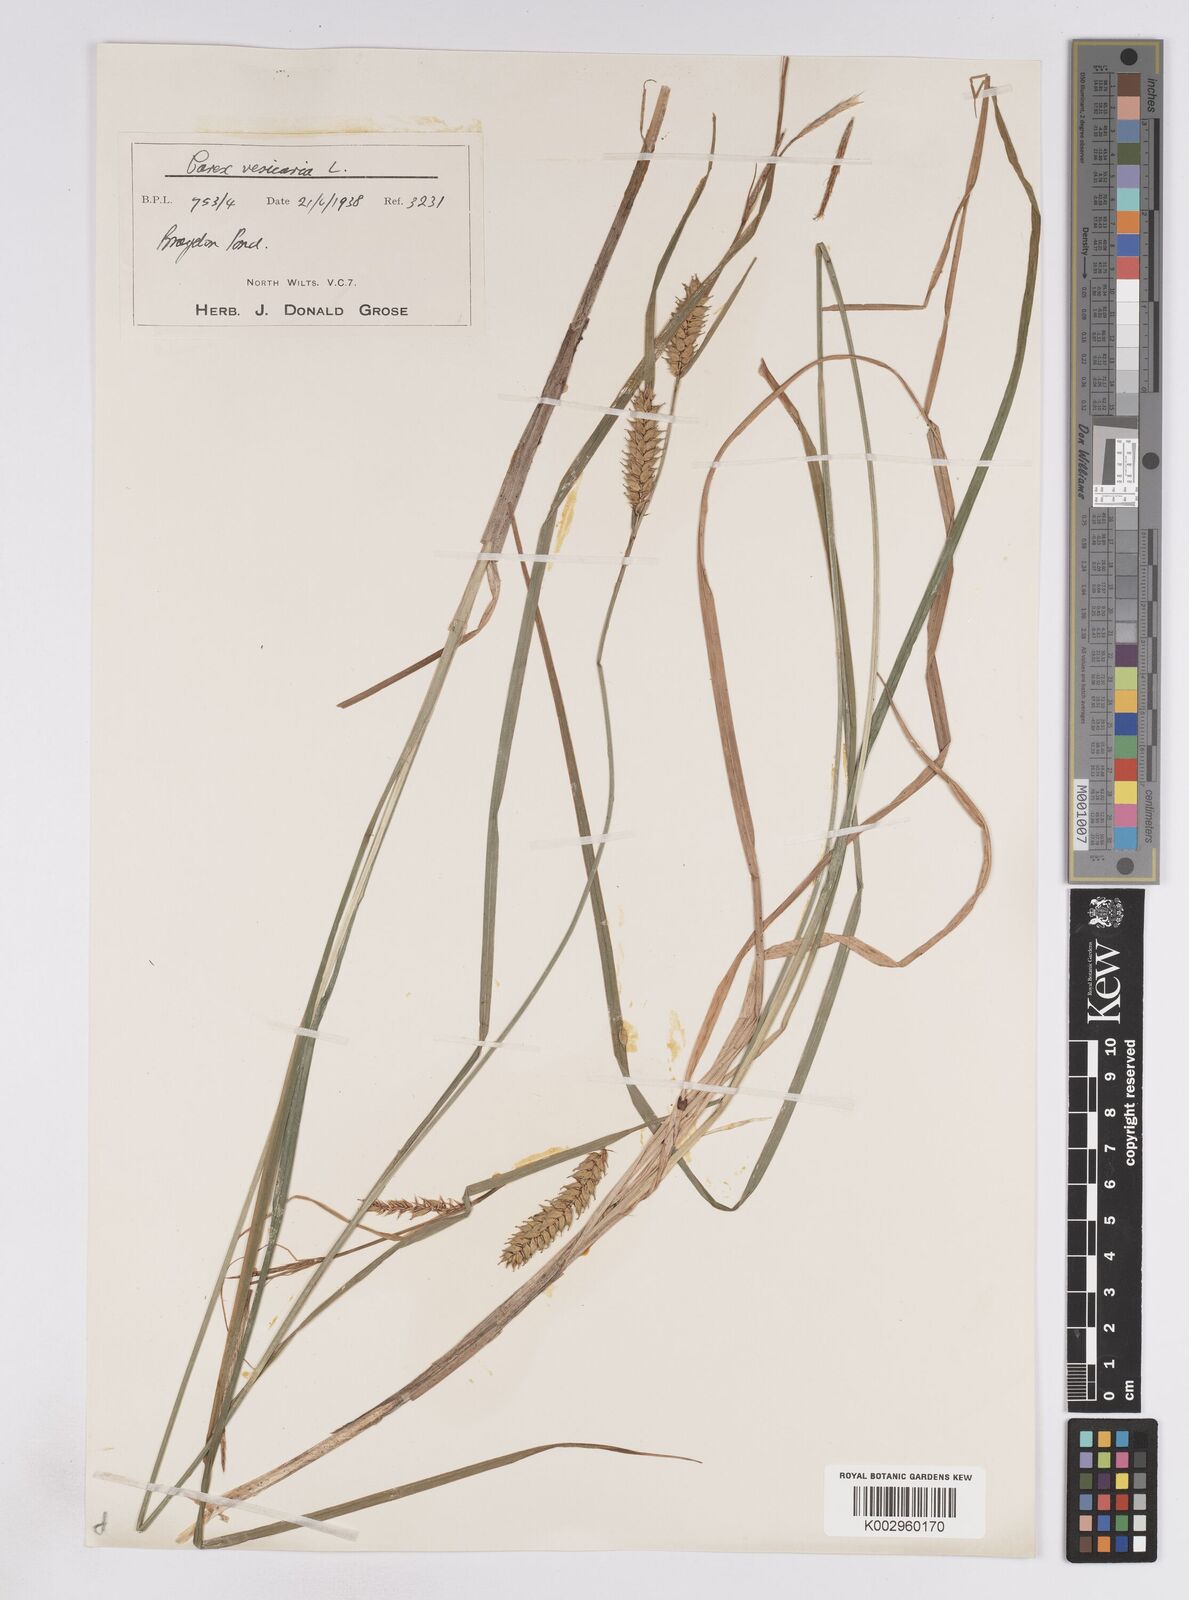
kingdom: Plantae
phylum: Tracheophyta
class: Liliopsida
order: Poales
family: Cyperaceae
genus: Carex
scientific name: Carex vesicaria
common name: Bladder-sedge
